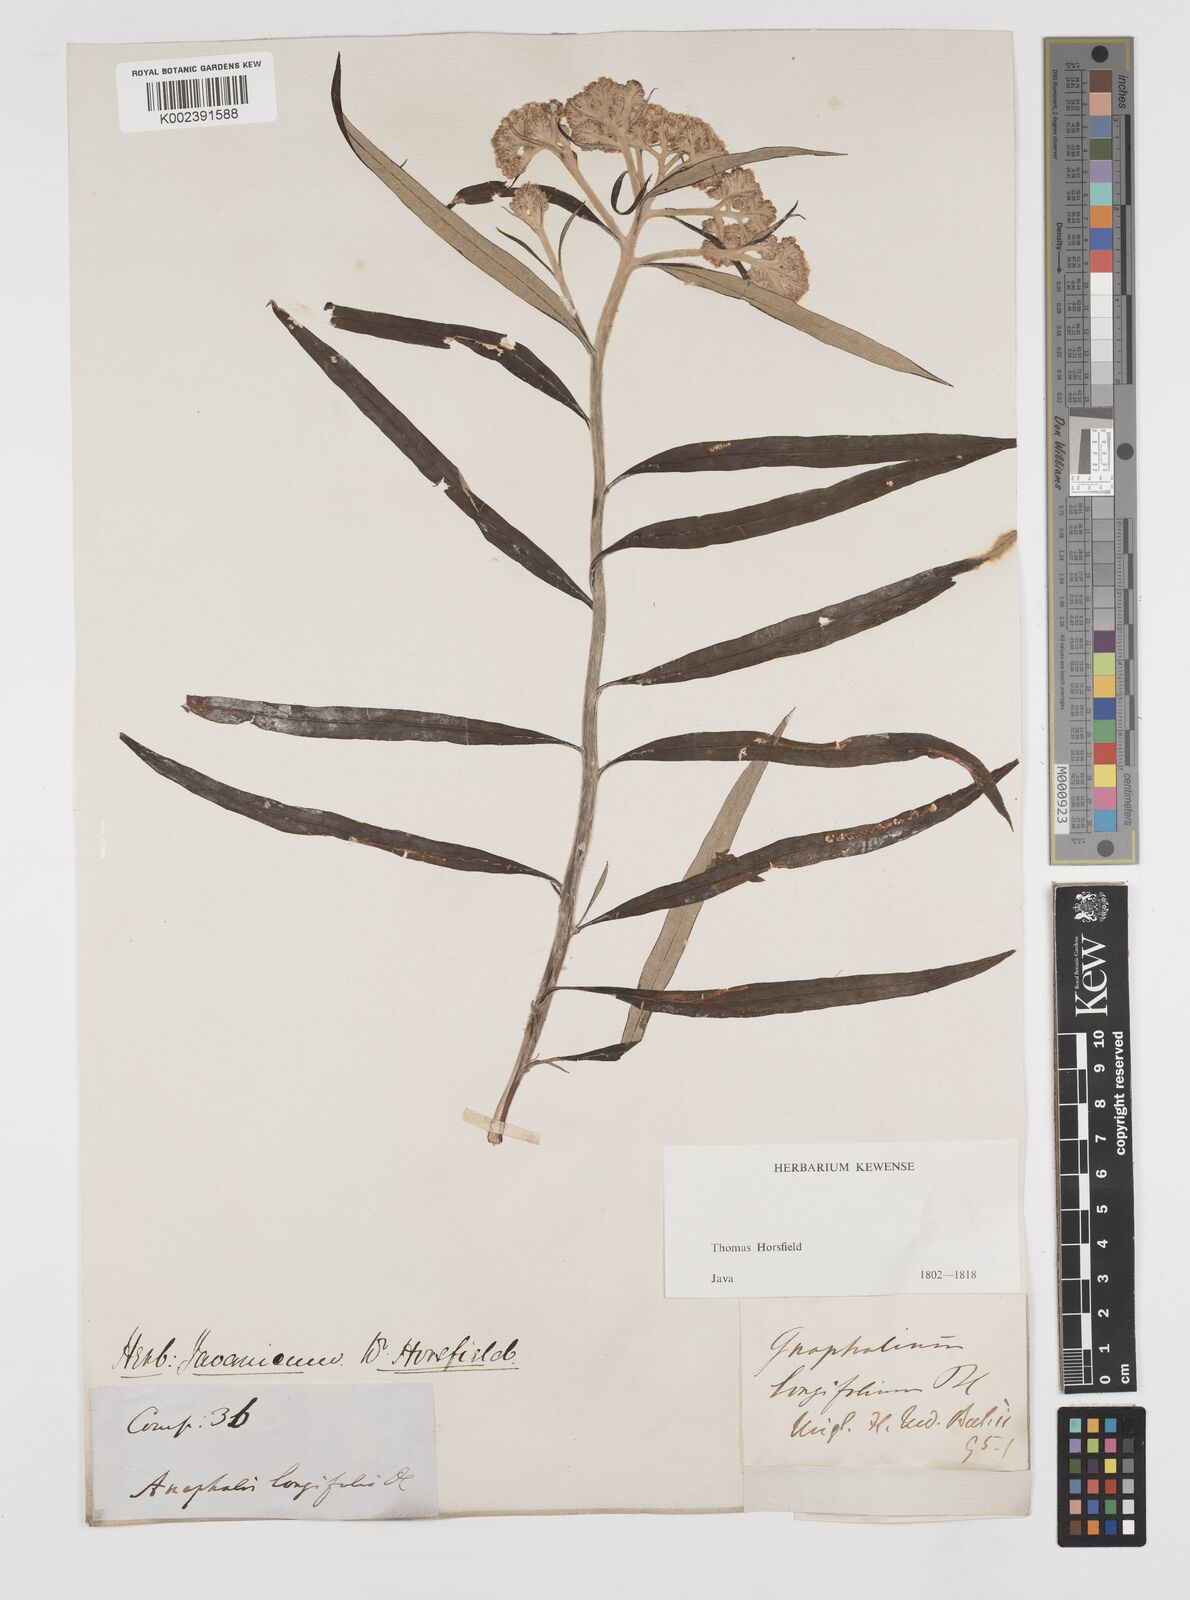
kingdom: Plantae
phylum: Tracheophyta
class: Magnoliopsida
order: Asterales
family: Asteraceae
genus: Anaphalis
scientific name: Anaphalis longifolia
